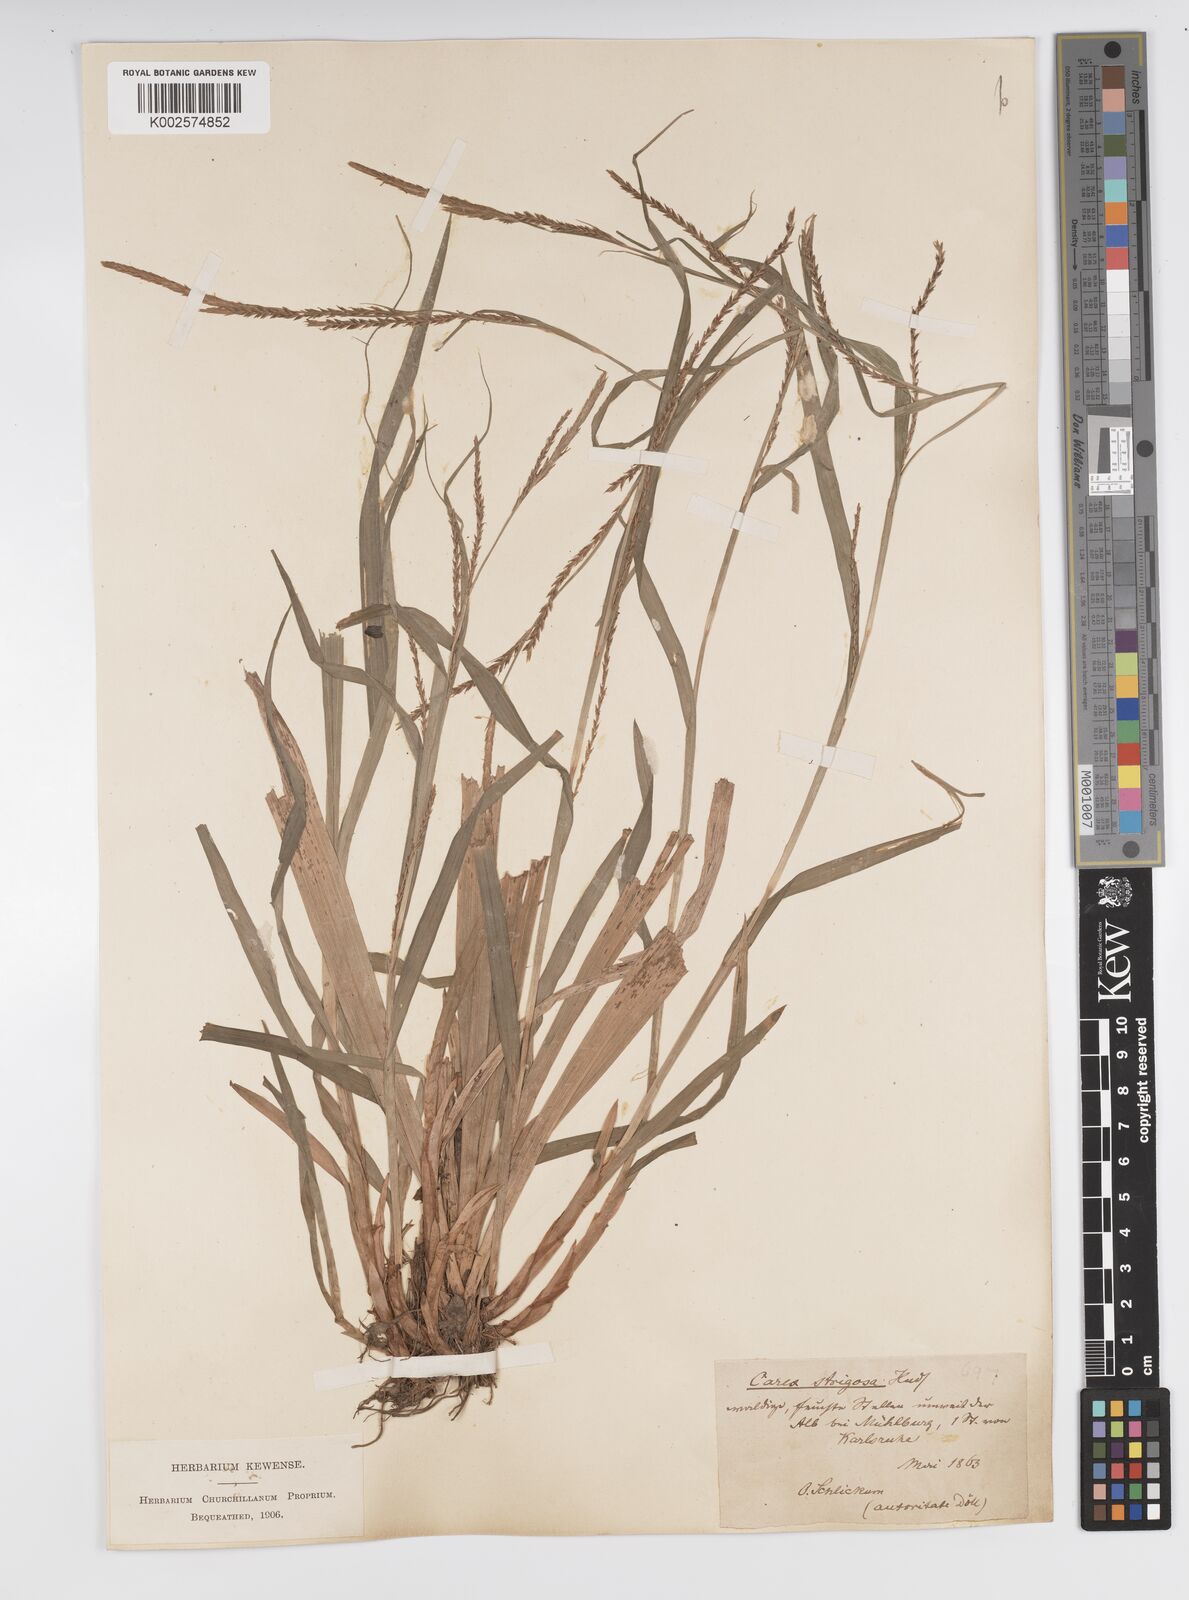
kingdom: Plantae
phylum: Tracheophyta
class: Liliopsida
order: Poales
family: Cyperaceae
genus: Carex
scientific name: Carex strigosa
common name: Thin-spiked wood-sedge
